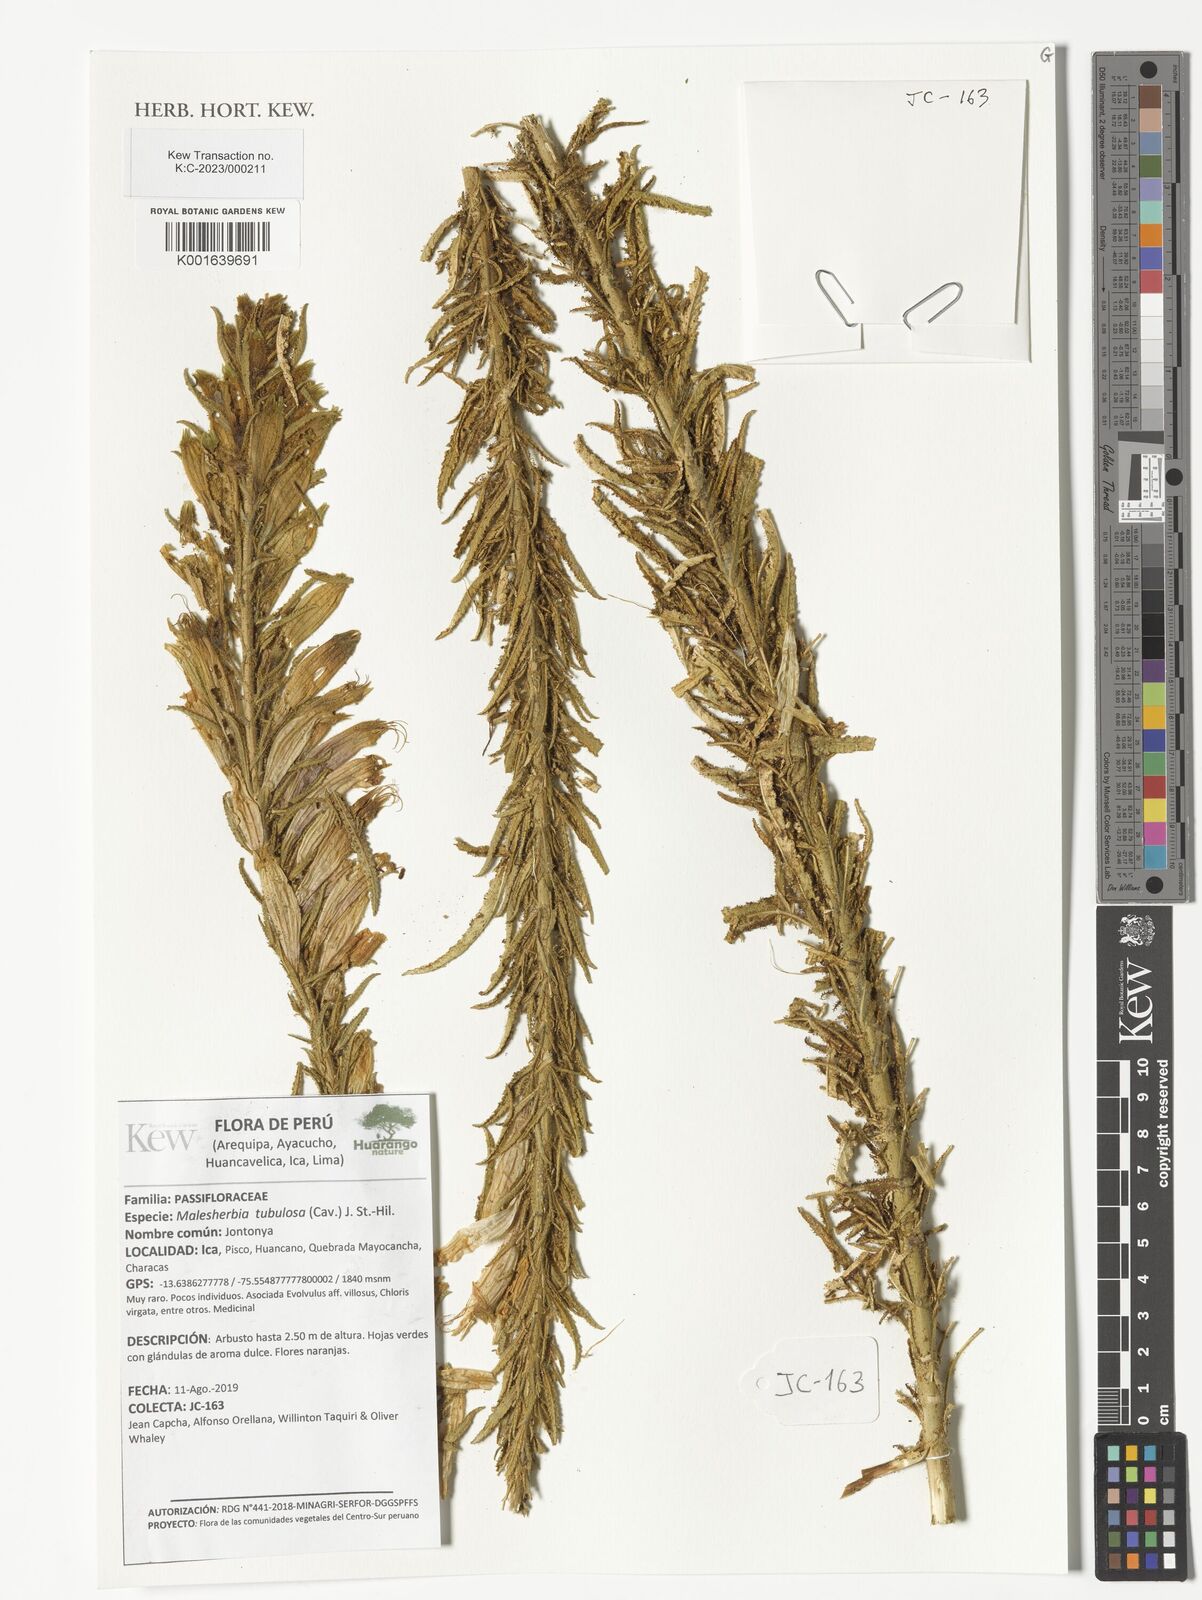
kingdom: Plantae
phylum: Tracheophyta
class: Magnoliopsida
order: Malpighiales
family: Malesherbiaceae
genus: Malesherbia
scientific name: Malesherbia tubulosa
